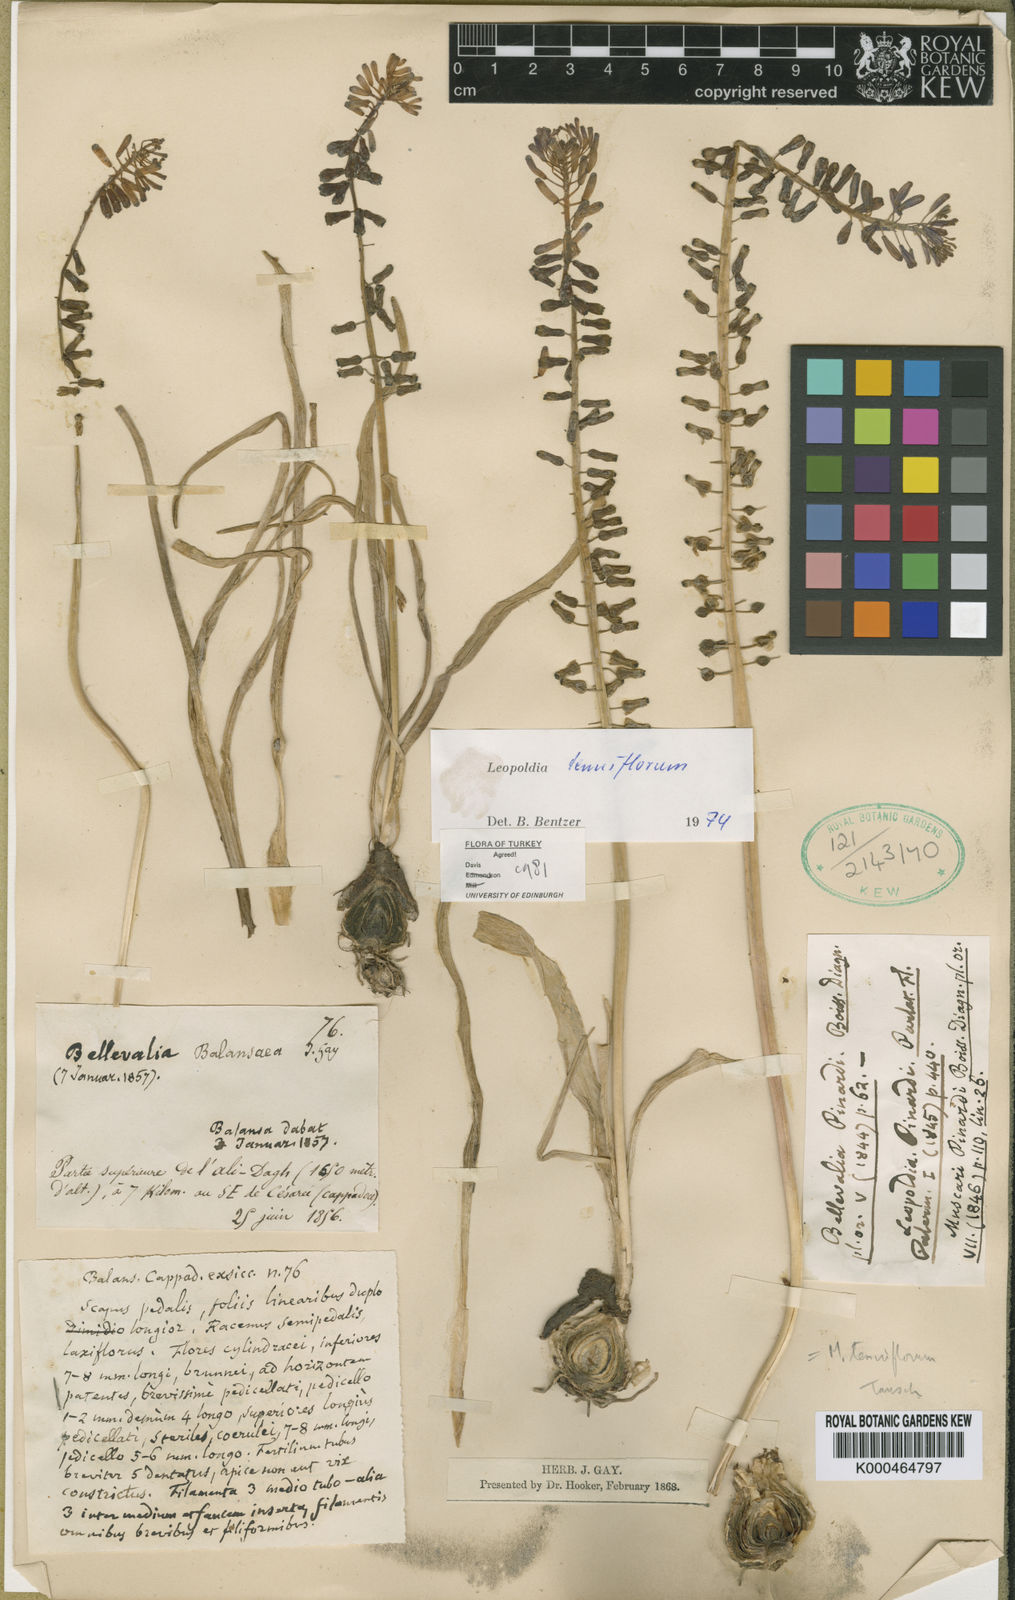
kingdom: Plantae
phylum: Tracheophyta
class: Liliopsida
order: Asparagales
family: Asparagaceae
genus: Muscari
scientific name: Muscari tenuiflorum
